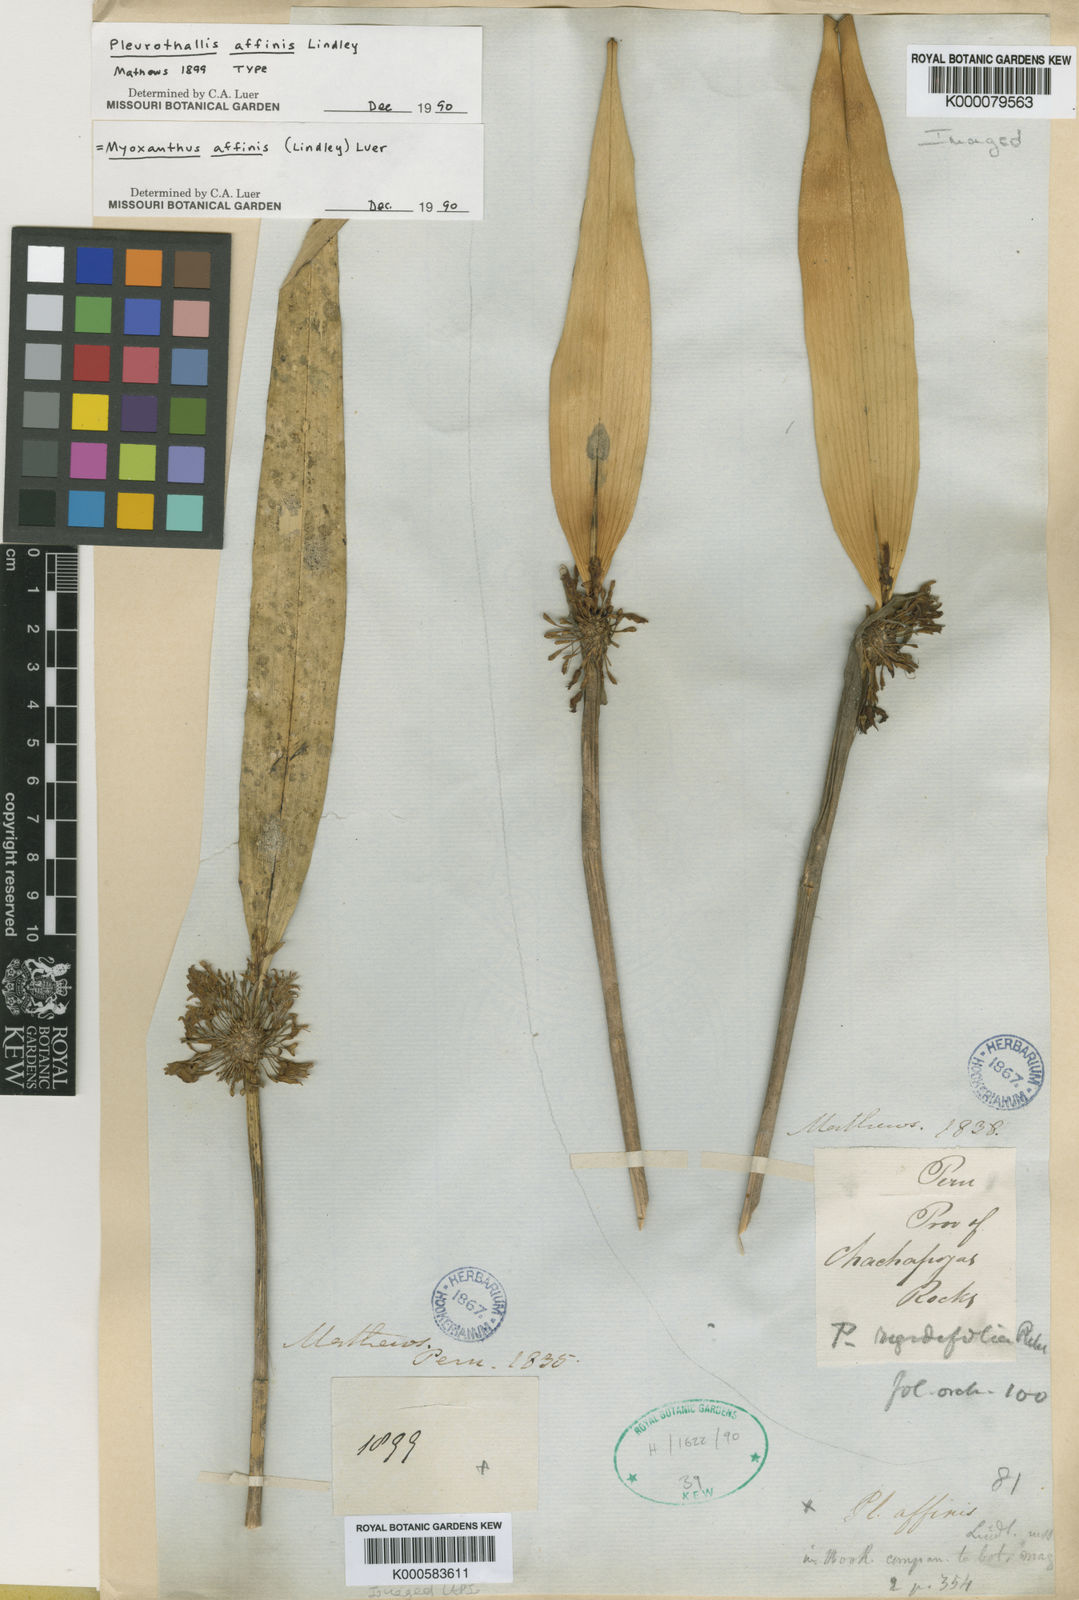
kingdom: Plantae
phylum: Tracheophyta
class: Liliopsida
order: Asparagales
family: Orchidaceae
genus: Myoxanthus
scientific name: Myoxanthus affinis
